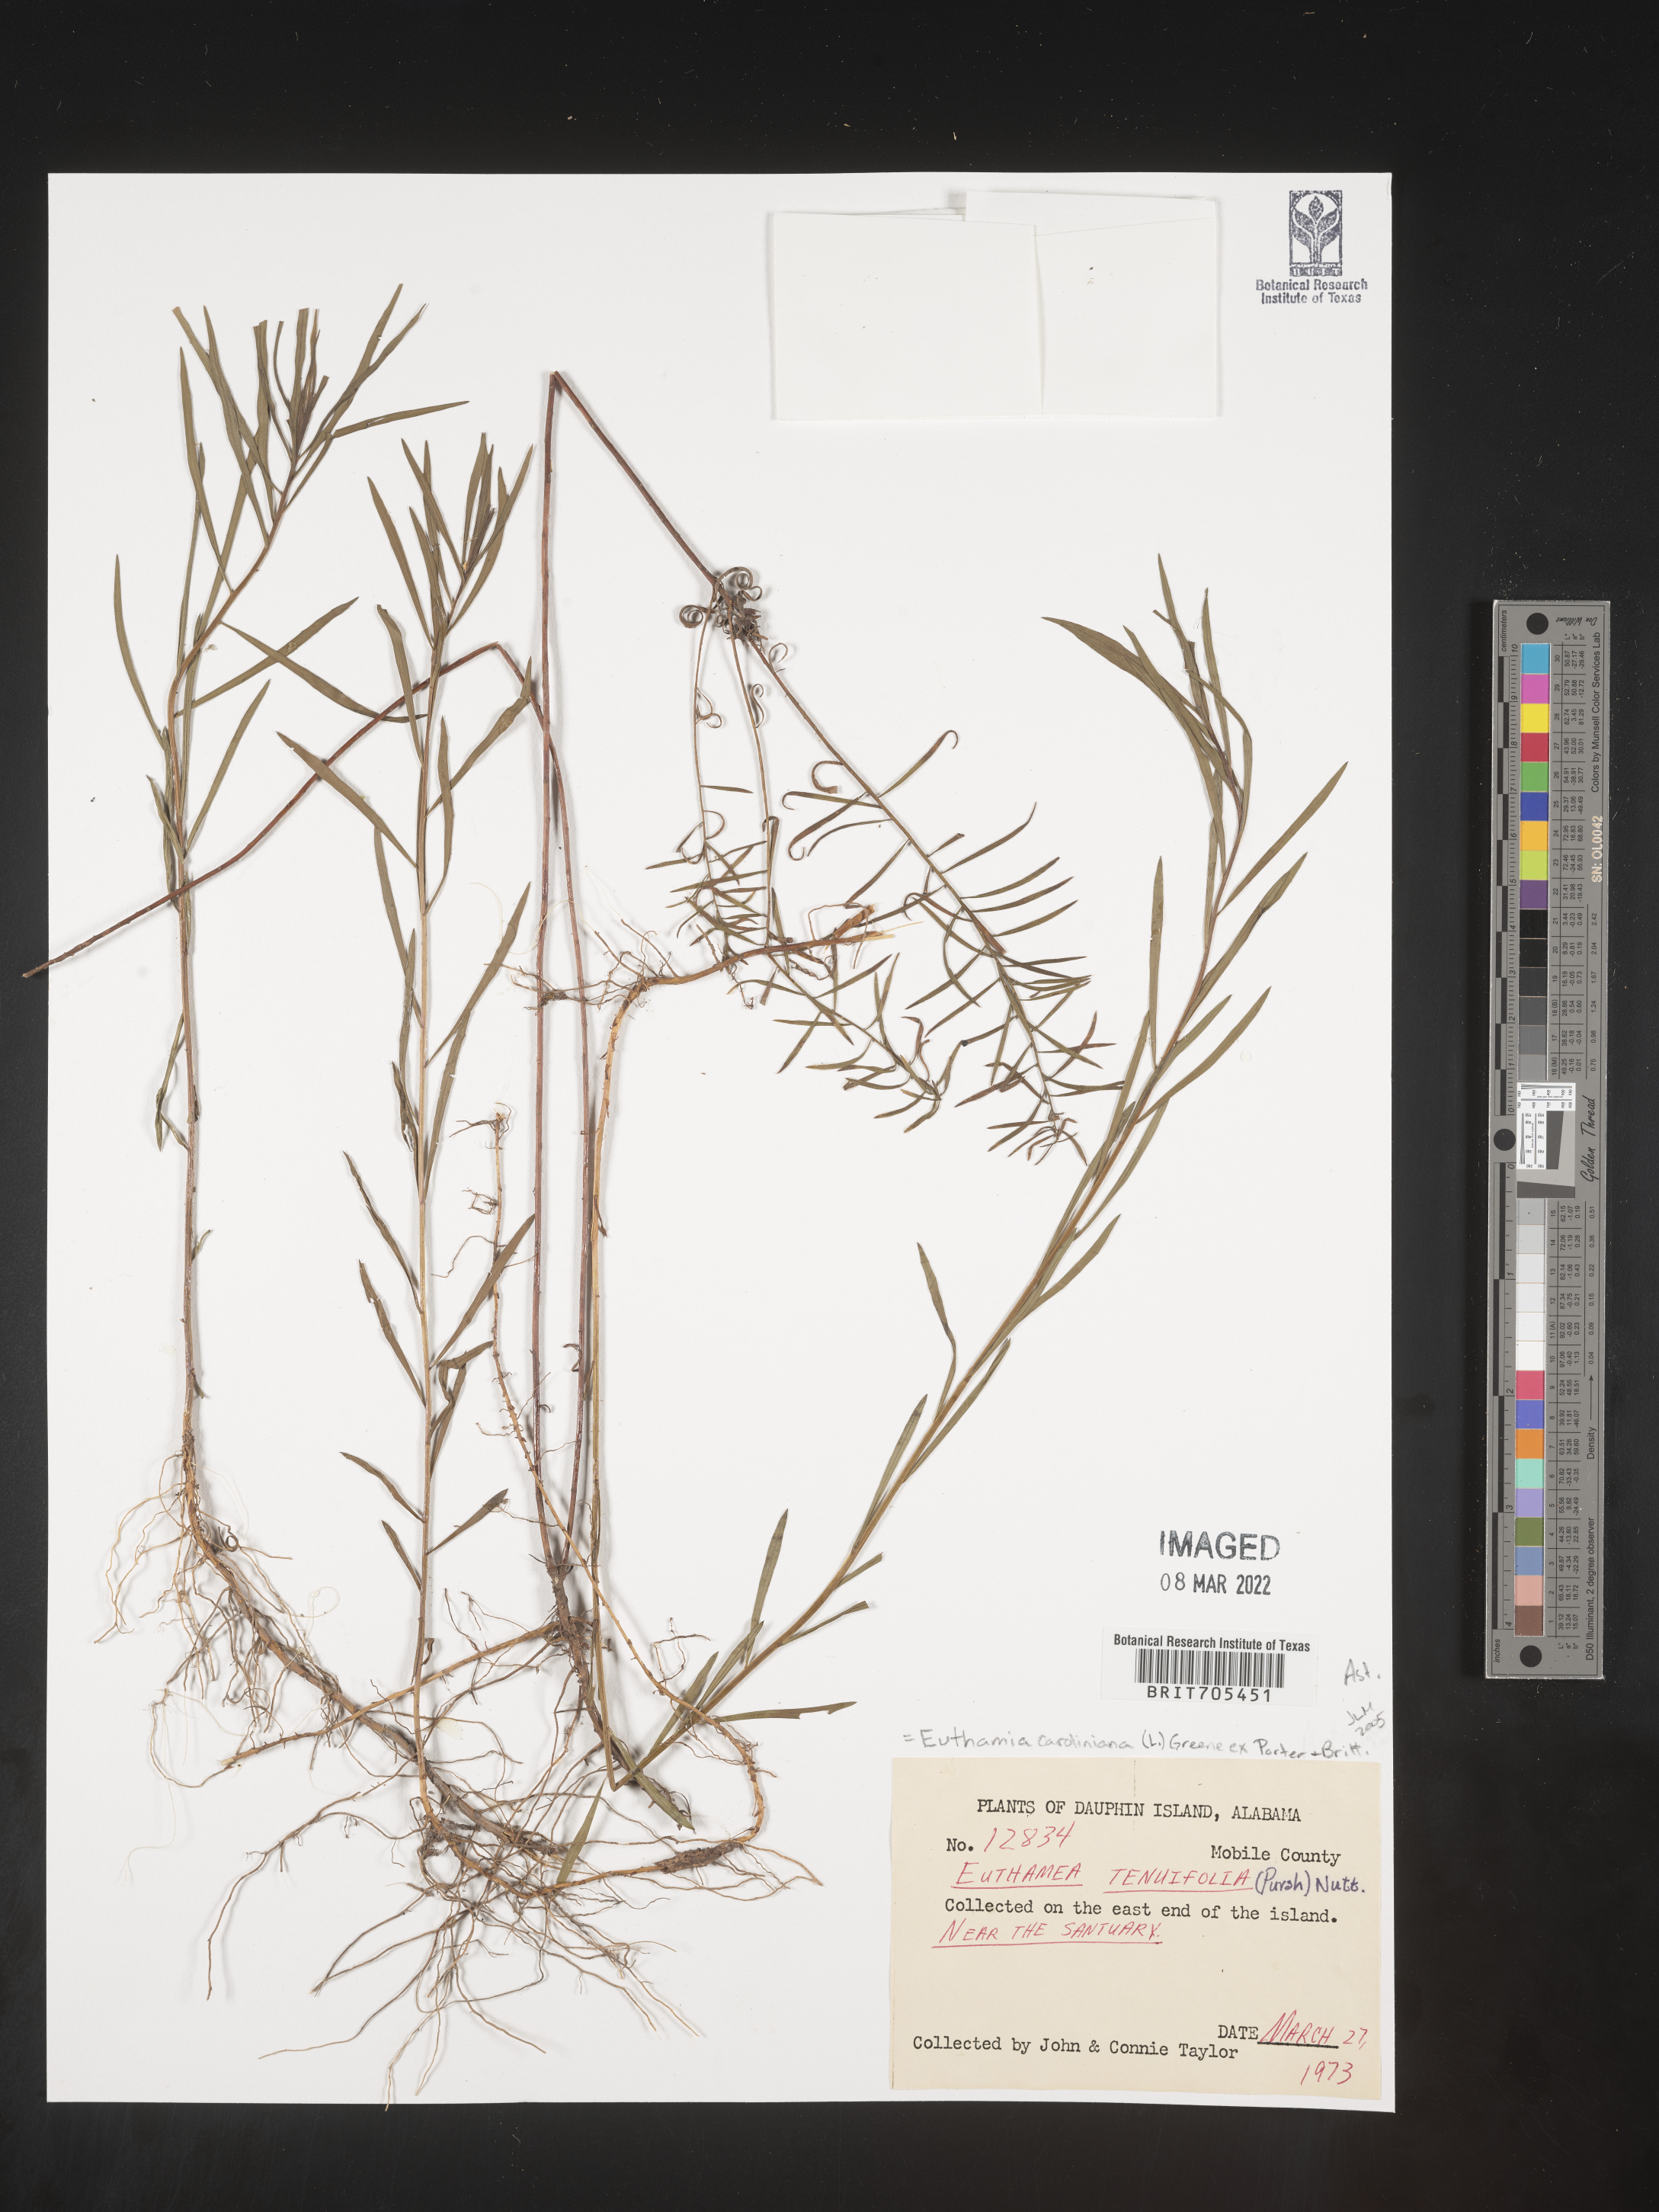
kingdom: Plantae
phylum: Tracheophyta
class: Magnoliopsida
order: Asterales
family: Asteraceae
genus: Euthamia
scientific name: Euthamia caroliniana
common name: Coastal plain goldentop
